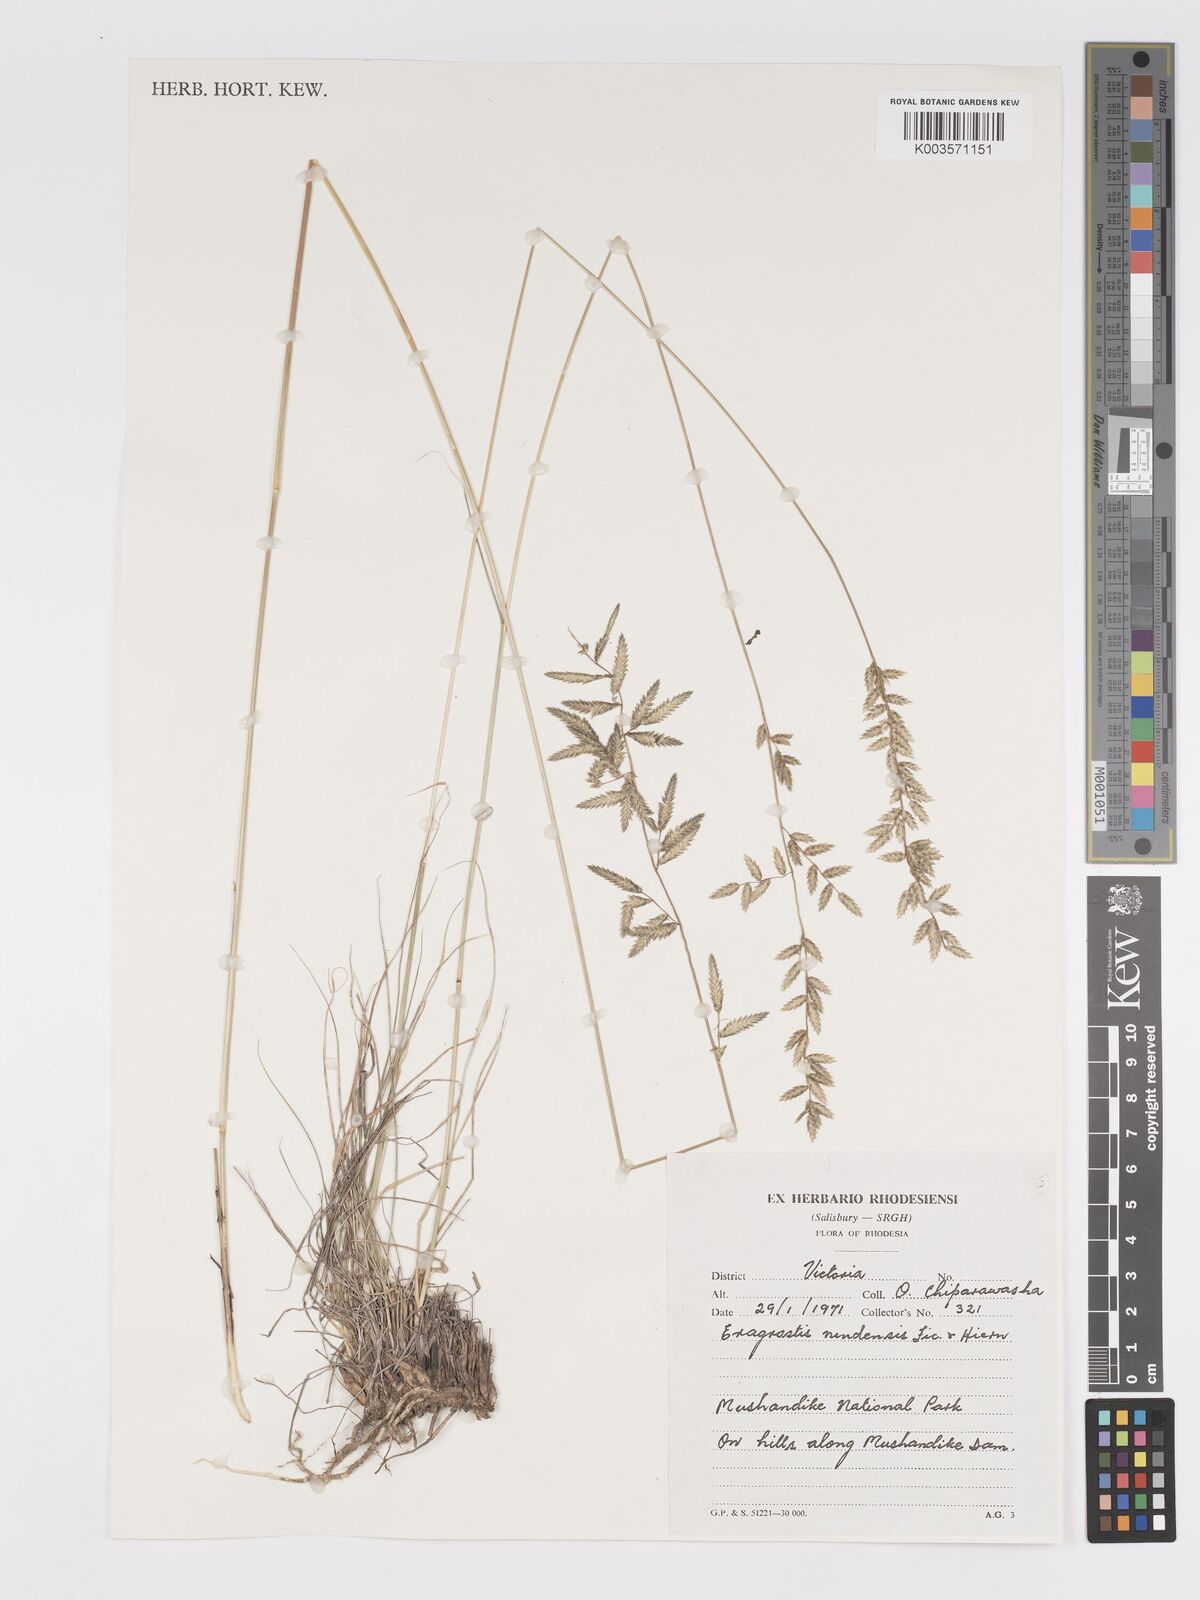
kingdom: Plantae
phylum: Tracheophyta
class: Liliopsida
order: Poales
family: Poaceae
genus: Eragrostis
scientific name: Eragrostis nindensis
